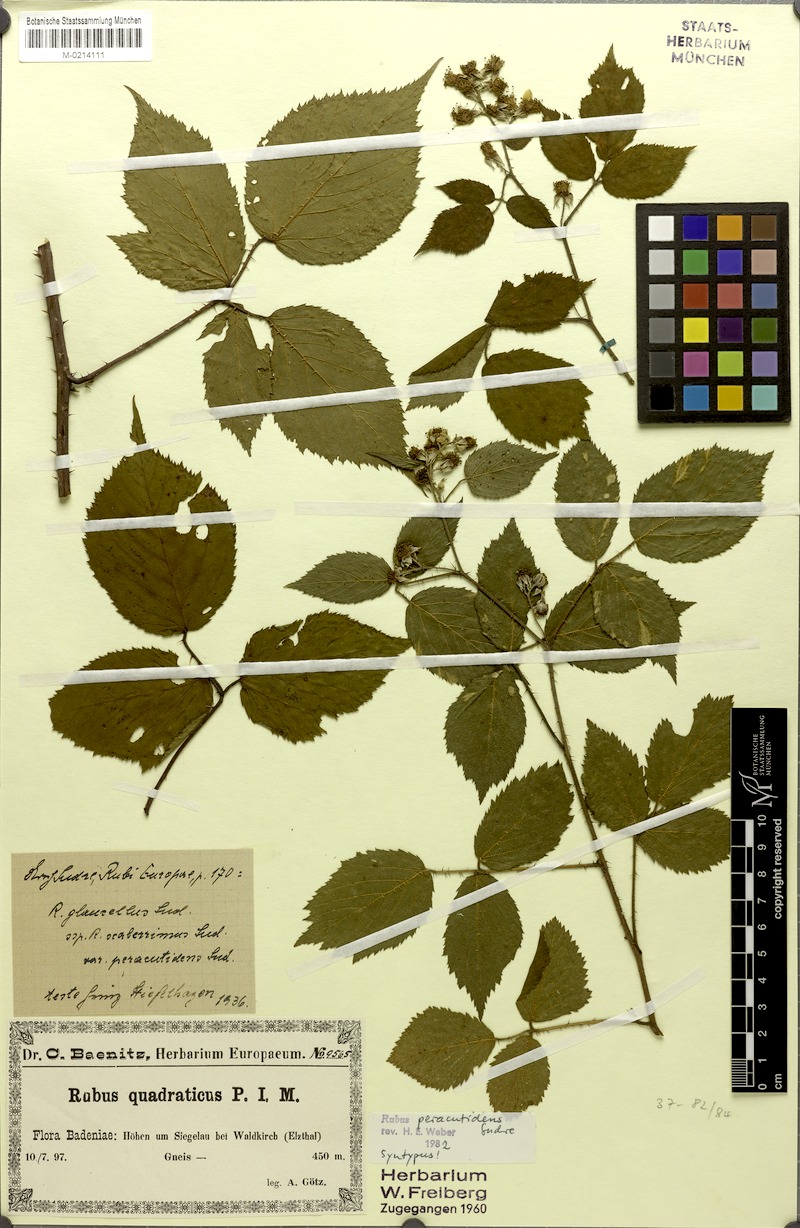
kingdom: Plantae
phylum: Tracheophyta
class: Magnoliopsida
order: Rosales
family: Rosaceae
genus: Rubus
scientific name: Rubus praetextus
